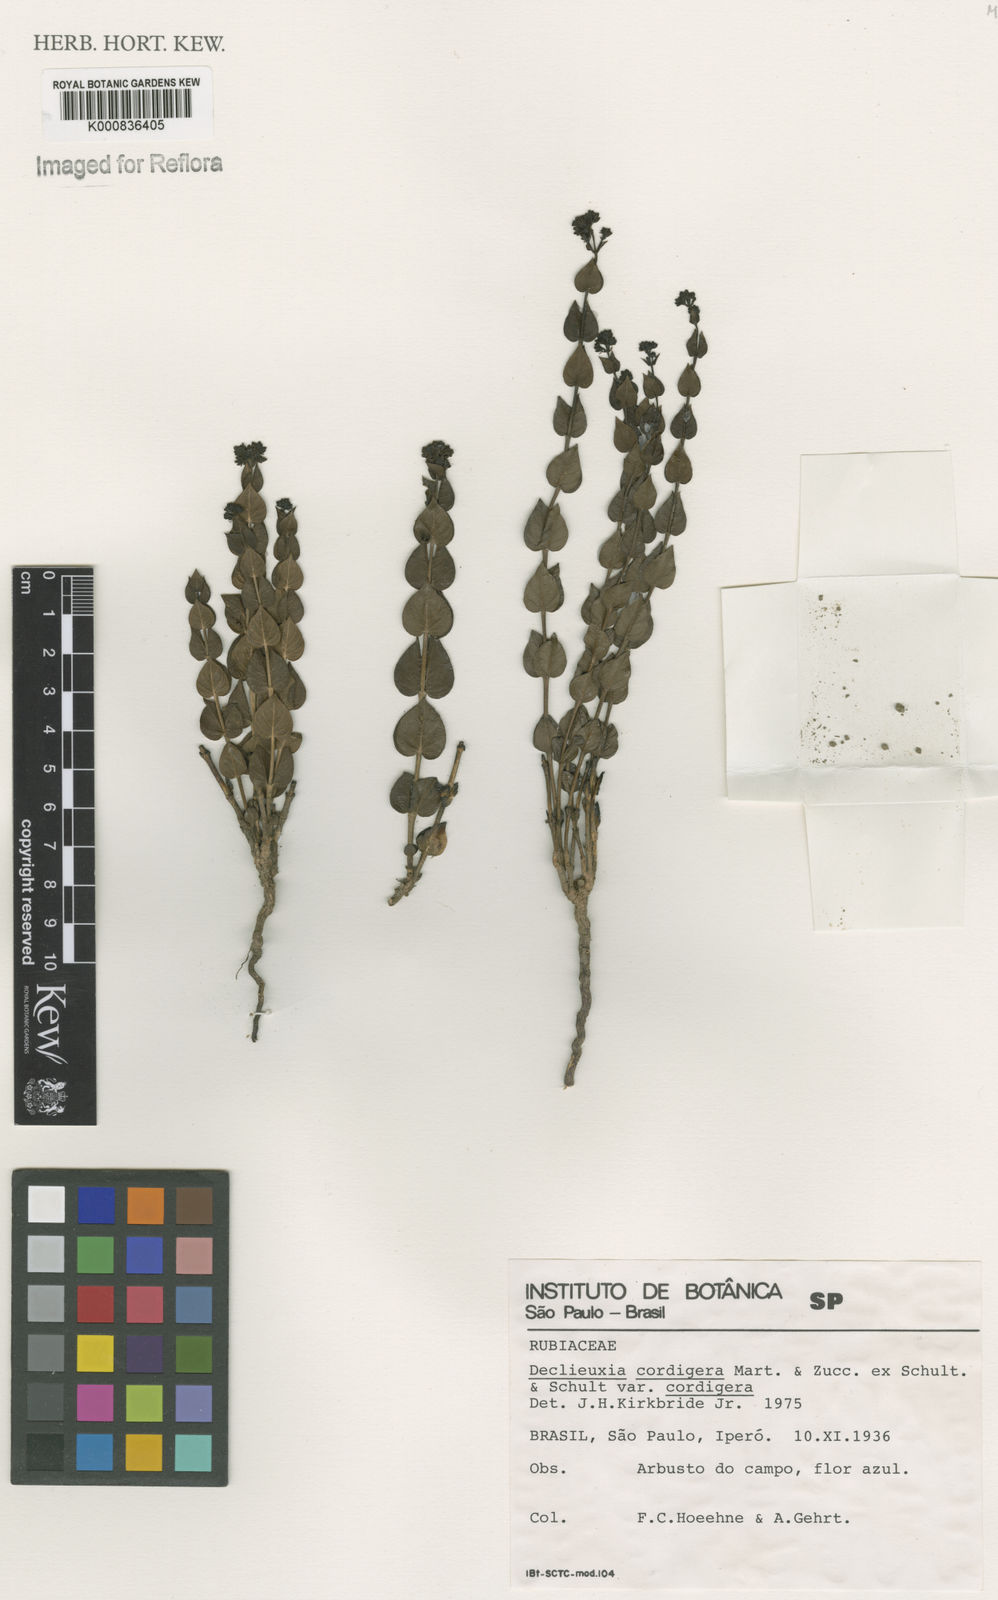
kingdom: Plantae
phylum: Tracheophyta
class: Magnoliopsida
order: Gentianales
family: Rubiaceae
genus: Declieuxia
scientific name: Declieuxia cordigera
